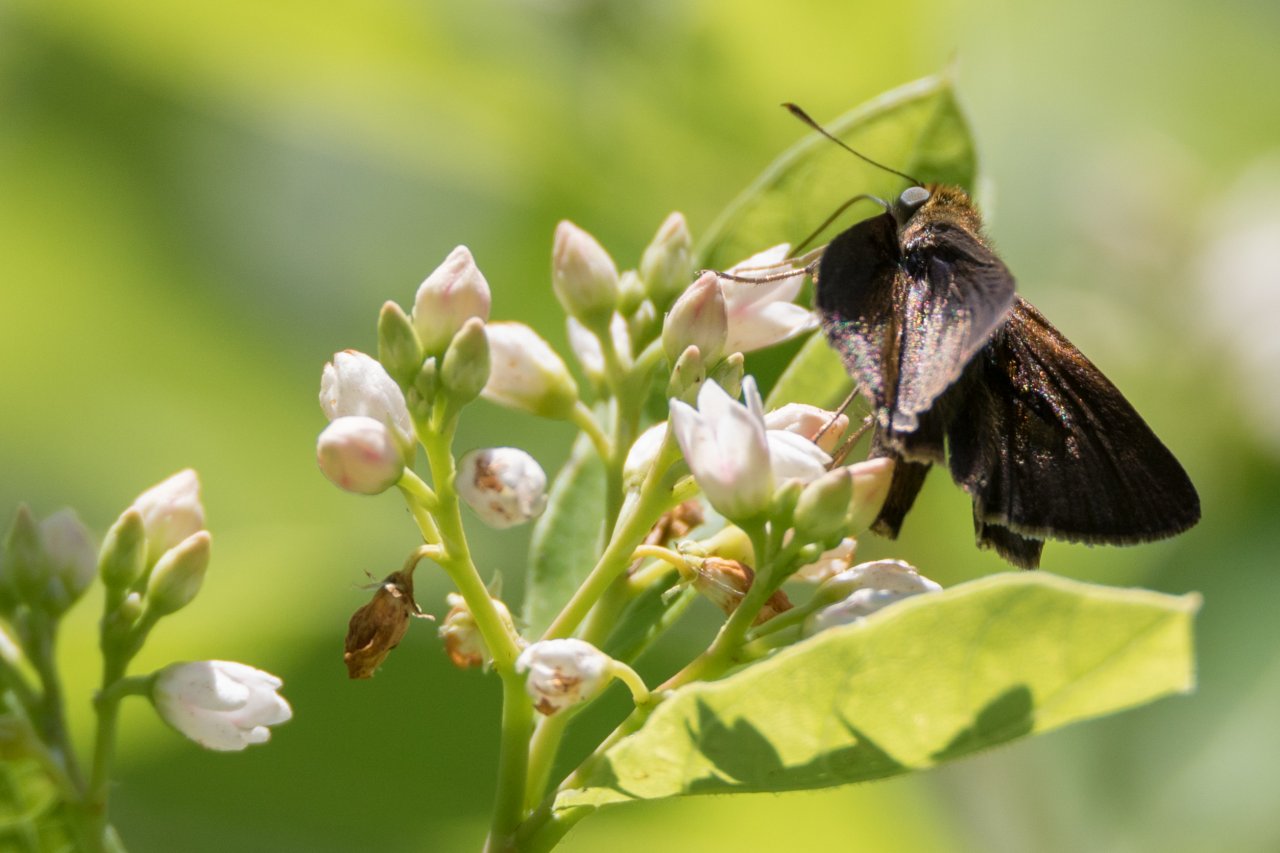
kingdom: Animalia
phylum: Arthropoda
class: Insecta
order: Lepidoptera
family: Hesperiidae
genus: Euphyes
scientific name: Euphyes vestris
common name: Dun Skipper
